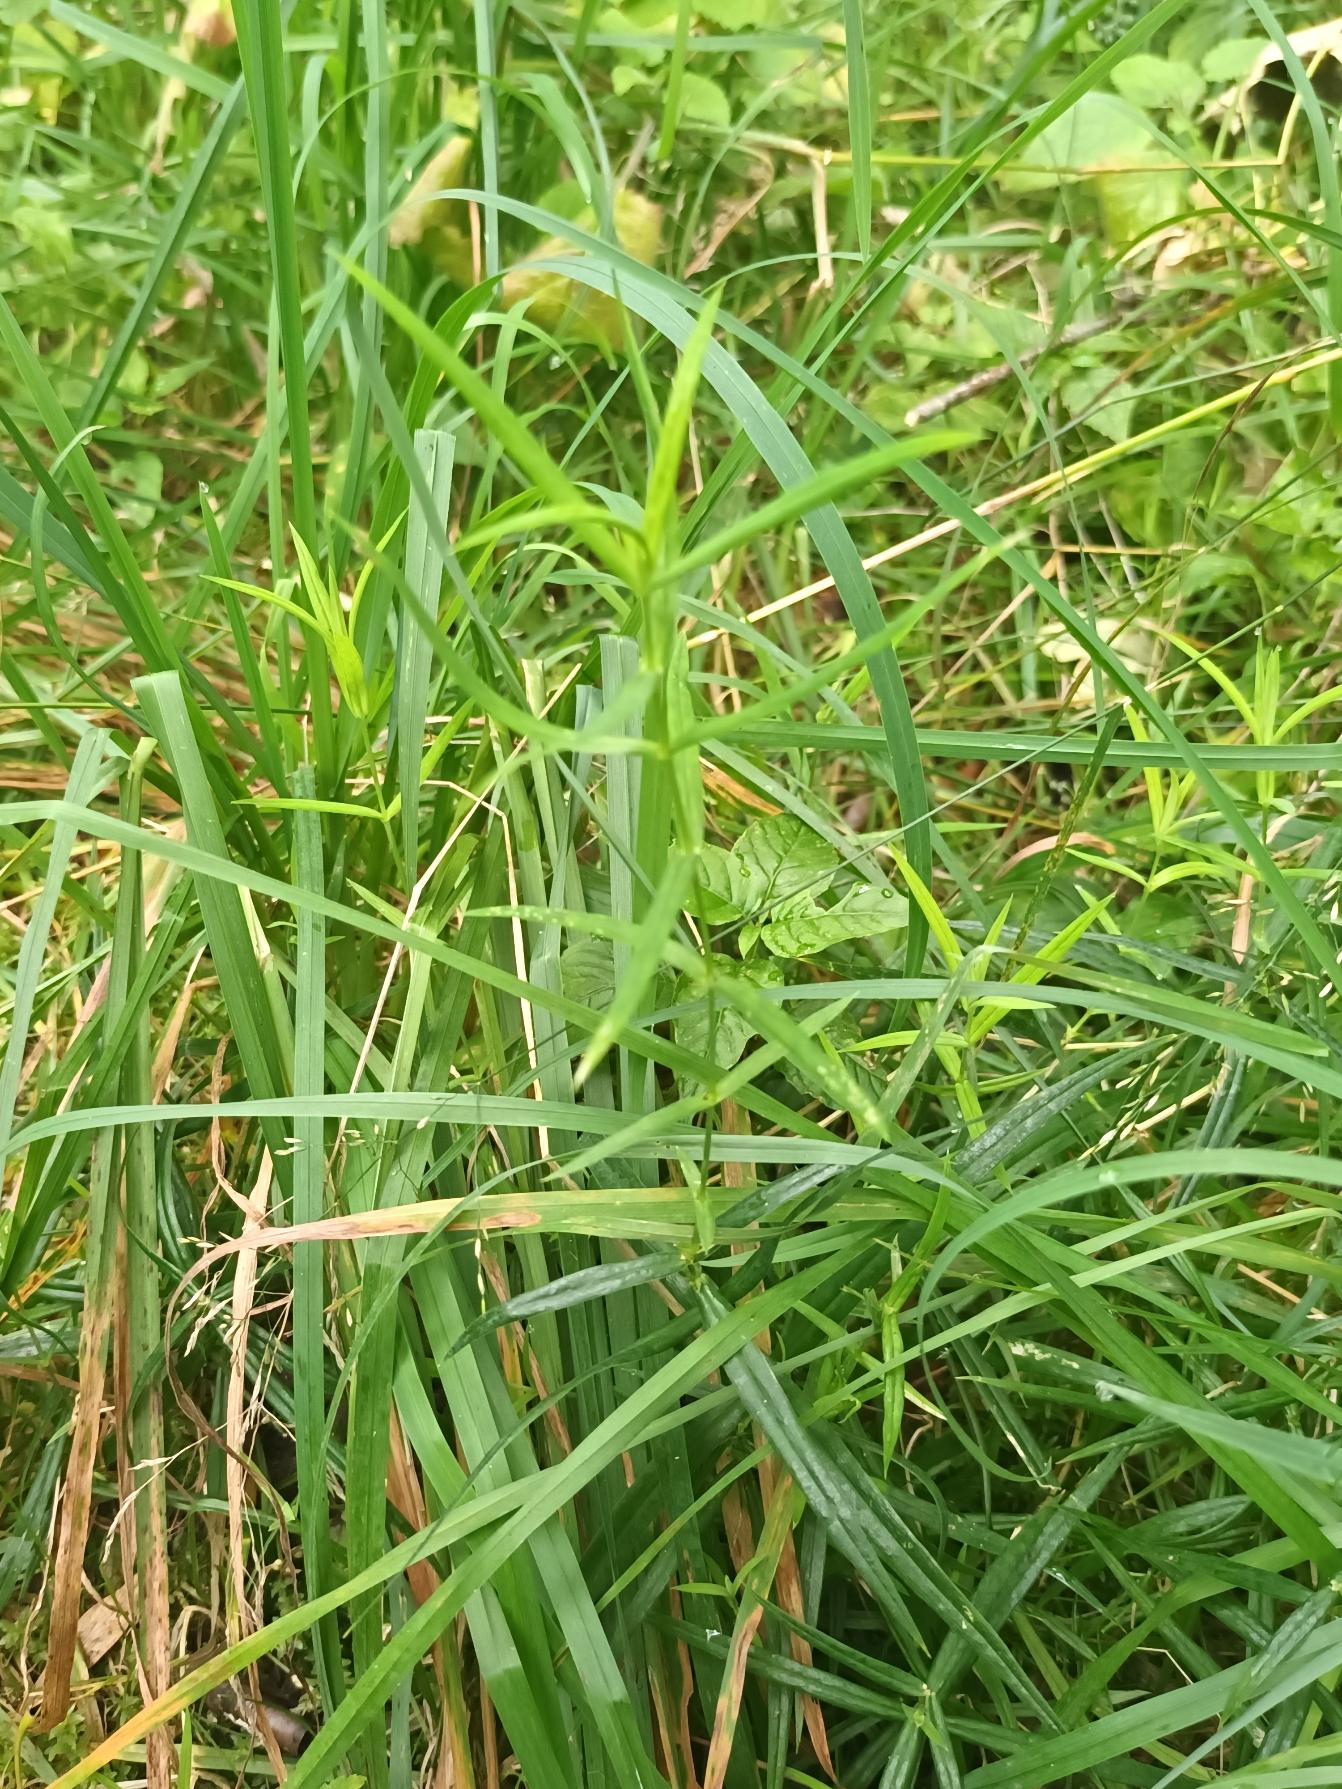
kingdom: Plantae
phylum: Tracheophyta
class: Magnoliopsida
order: Caryophyllales
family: Caryophyllaceae
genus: Rabelera
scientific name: Rabelera holostea
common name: Stor fladstjerne
